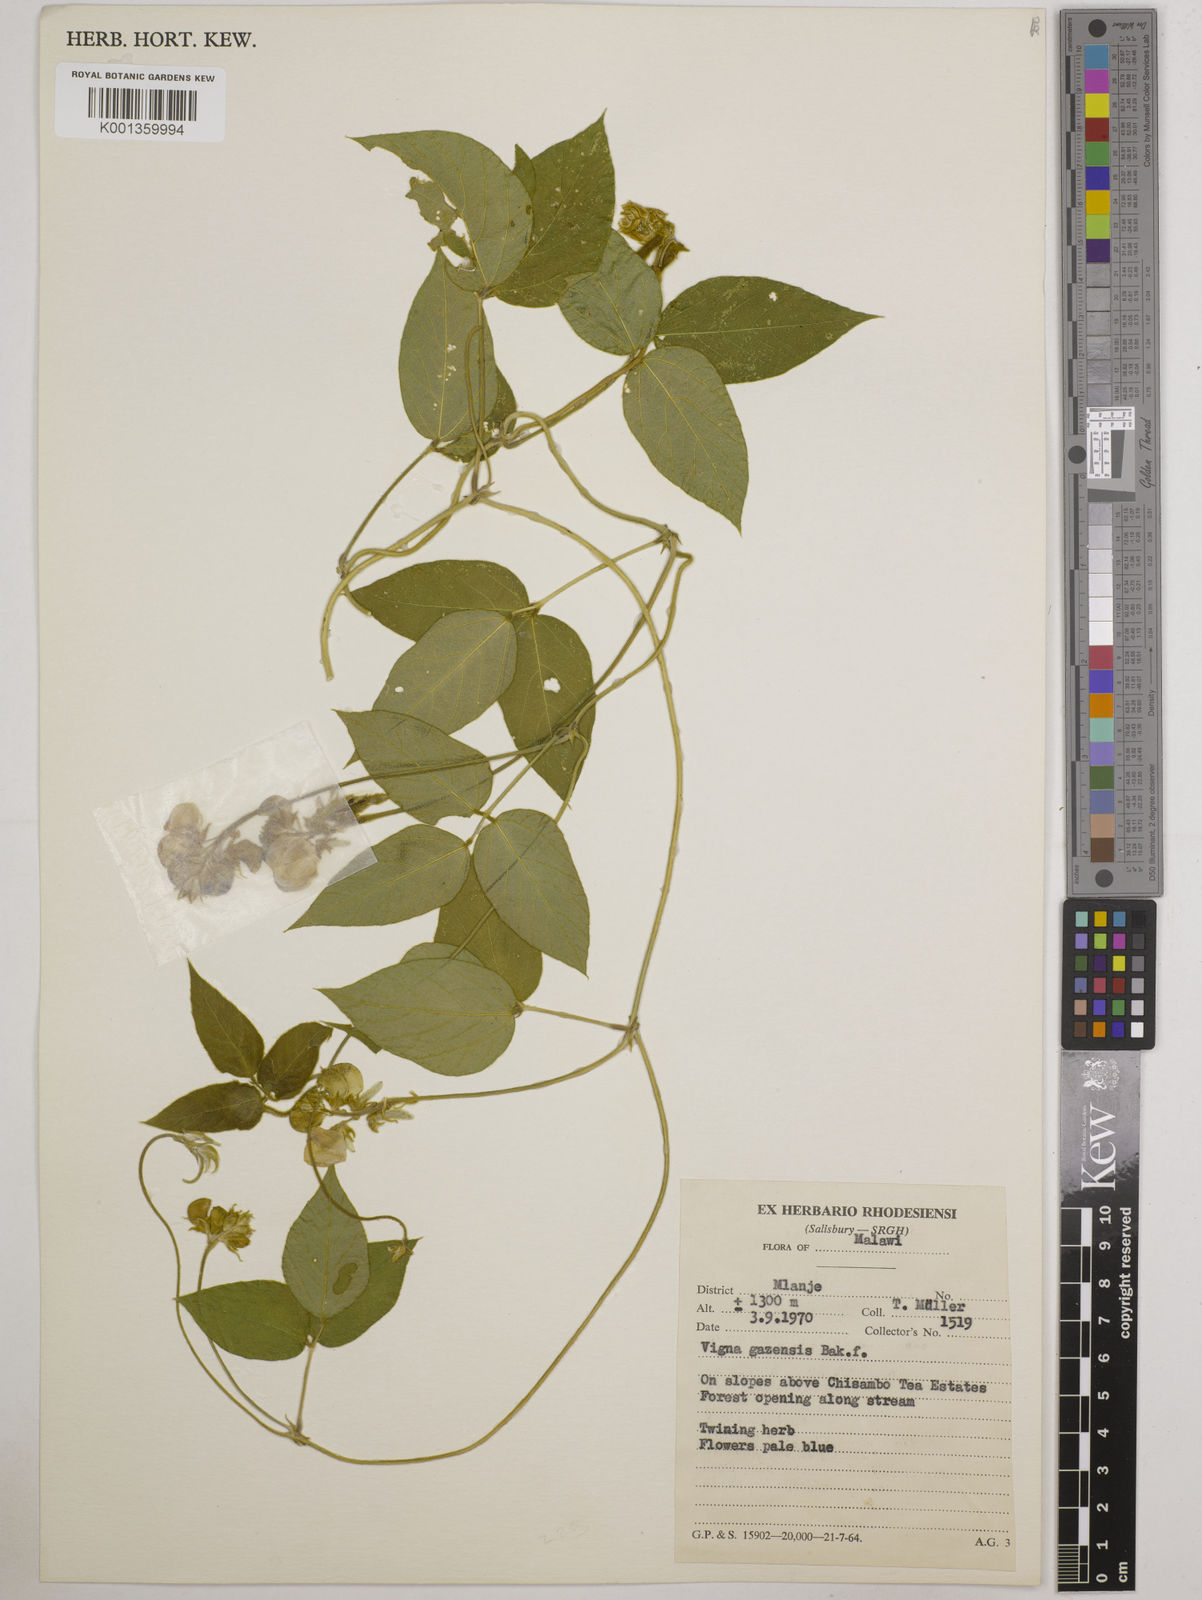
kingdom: Plantae
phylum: Tracheophyta
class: Magnoliopsida
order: Fabales
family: Fabaceae
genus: Vigna
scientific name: Vigna gazensis
